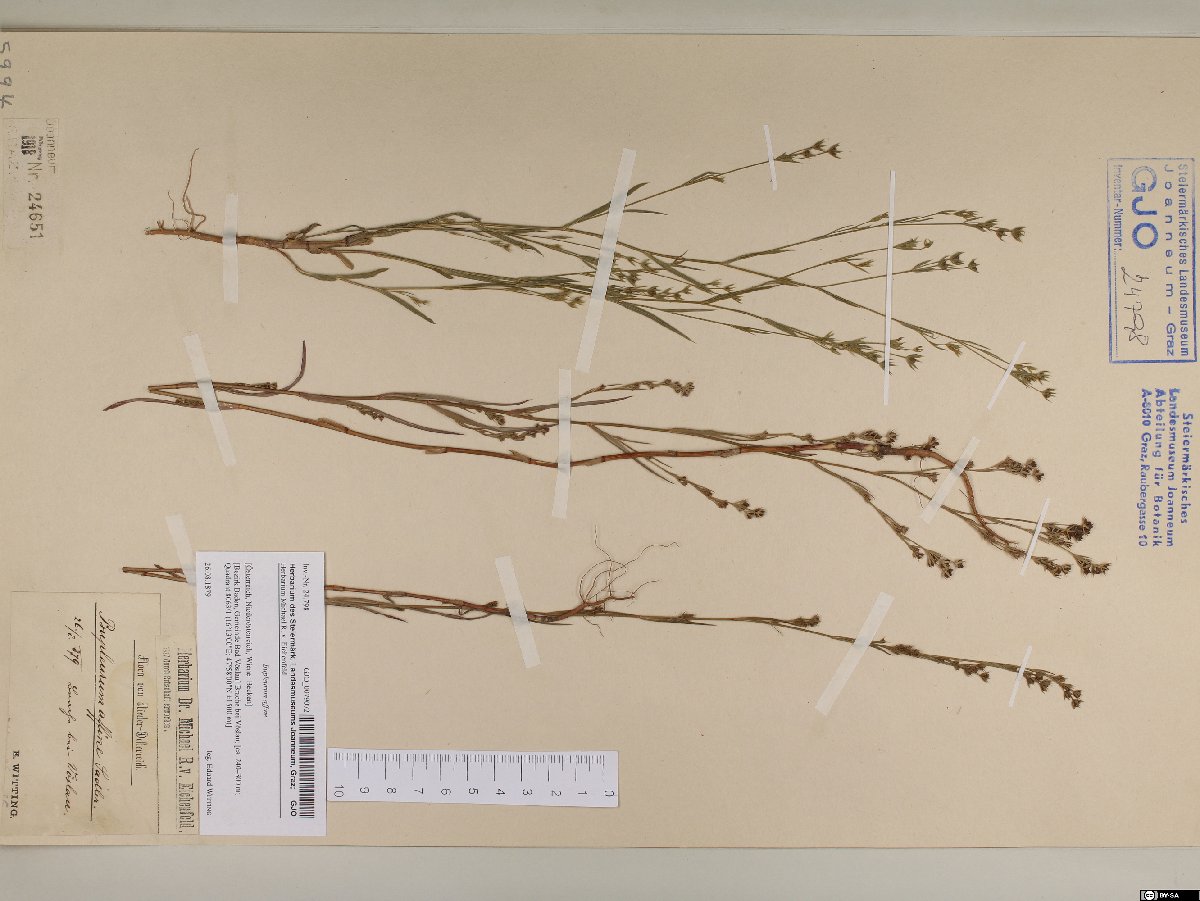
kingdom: Plantae
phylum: Tracheophyta
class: Magnoliopsida
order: Apiales
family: Apiaceae
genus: Bupleurum
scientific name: Bupleurum affine
